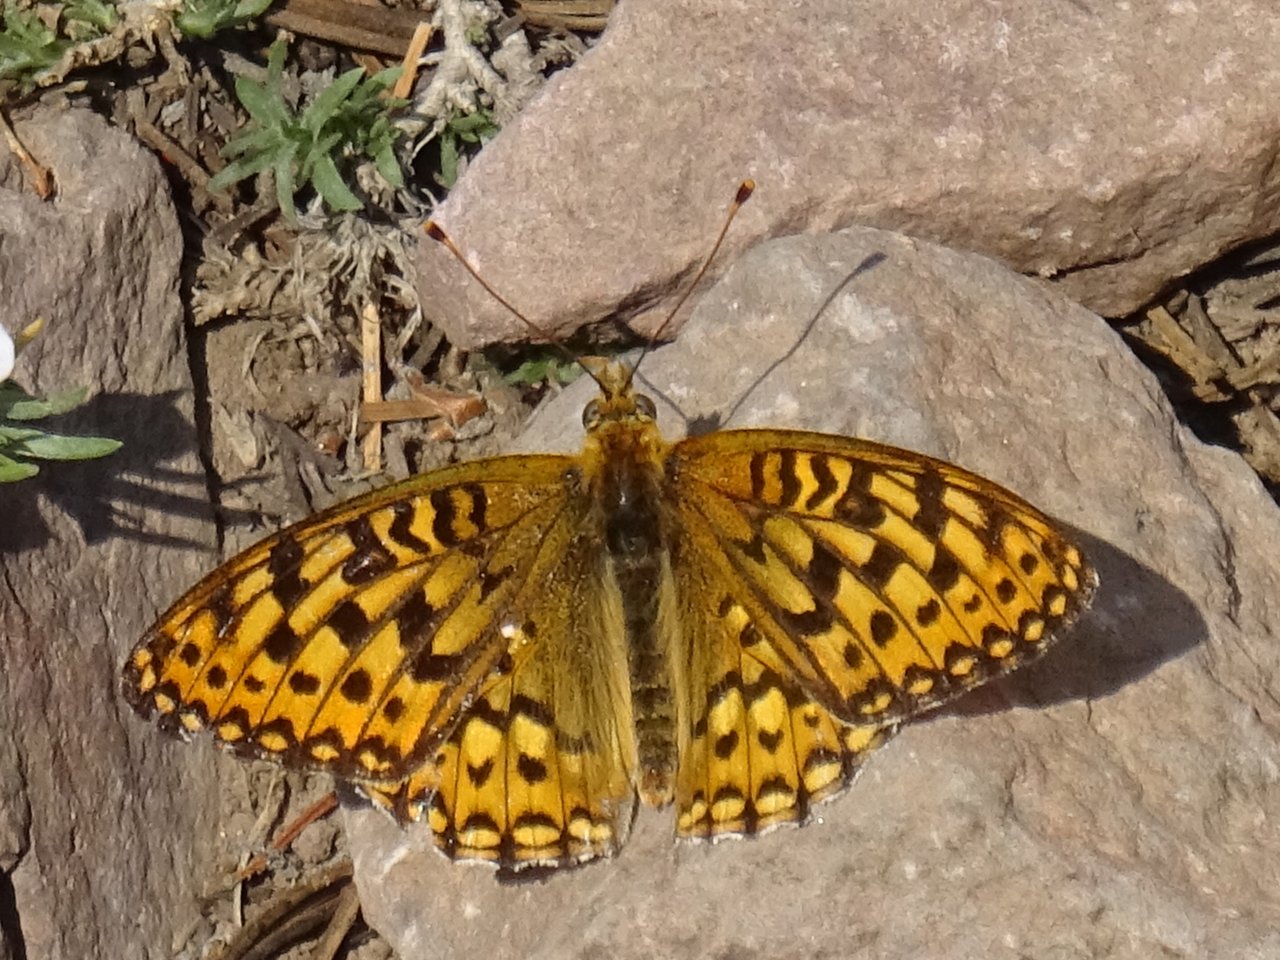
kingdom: Animalia
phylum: Arthropoda
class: Insecta
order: Lepidoptera
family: Nymphalidae
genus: Speyeria
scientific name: Speyeria callippe
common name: Callippe Fritillary
